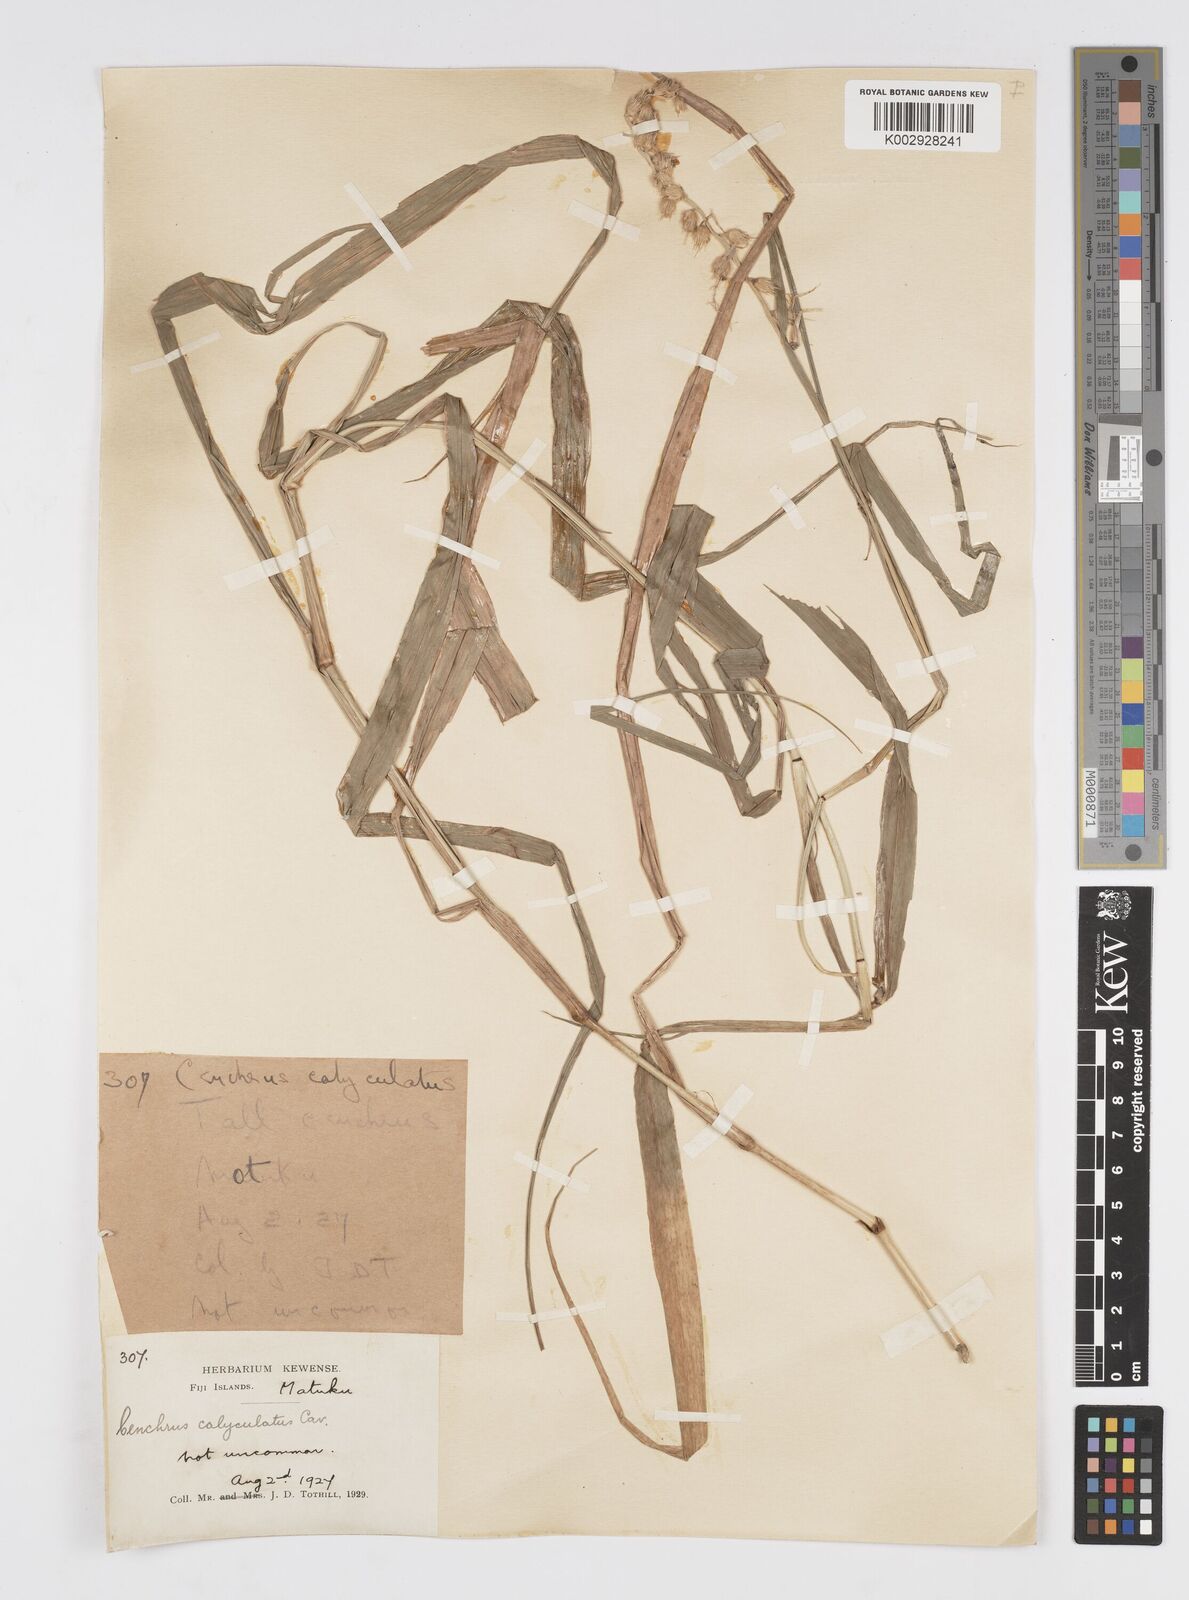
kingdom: Plantae
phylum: Tracheophyta
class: Liliopsida
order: Poales
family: Poaceae
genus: Cenchrus
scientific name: Cenchrus caliculatus
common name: Large bur grass
